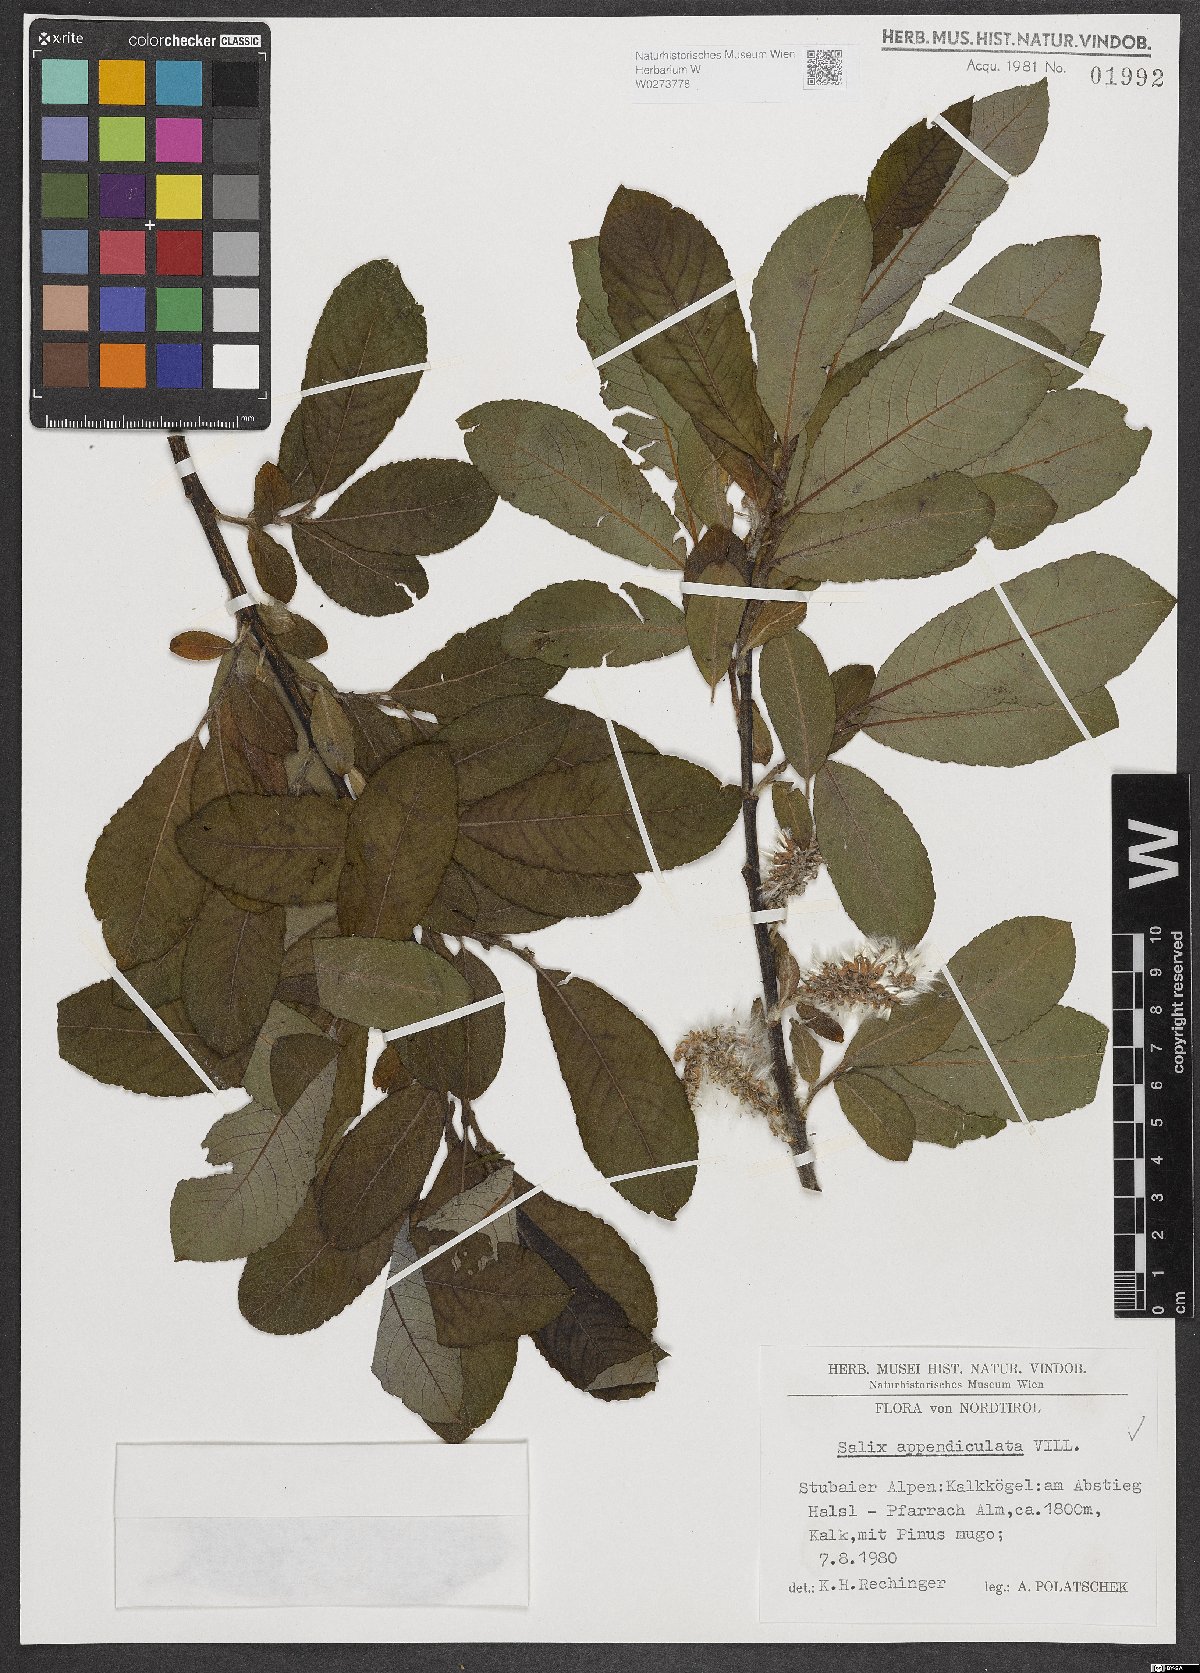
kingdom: Plantae
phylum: Tracheophyta
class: Magnoliopsida
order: Malpighiales
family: Salicaceae
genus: Salix
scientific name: Salix appendiculata
